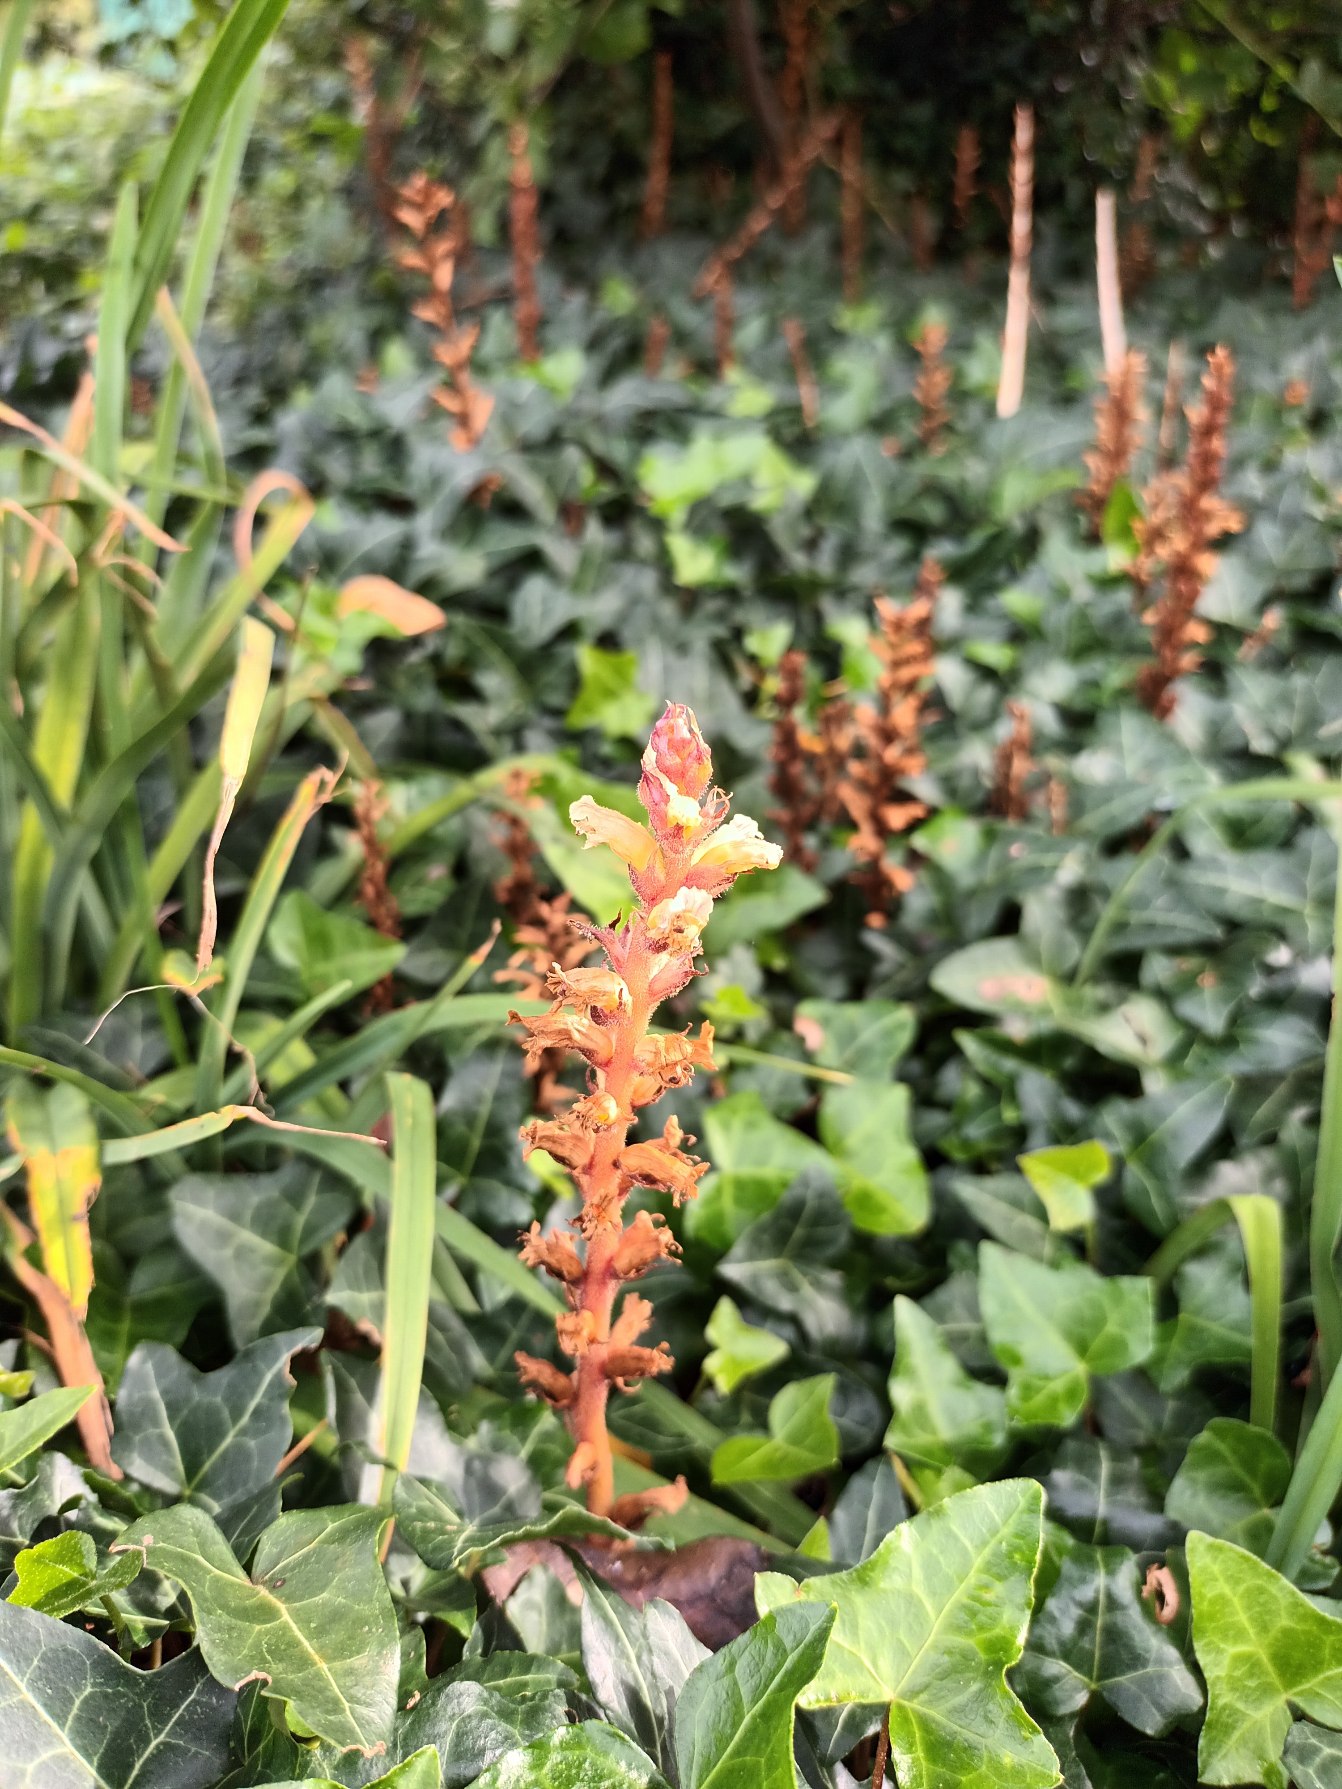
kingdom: Plantae
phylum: Tracheophyta
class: Magnoliopsida
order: Lamiales
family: Orobanchaceae
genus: Orobanche
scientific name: Orobanche hederae
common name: Vedbend-gyvelkvæler
